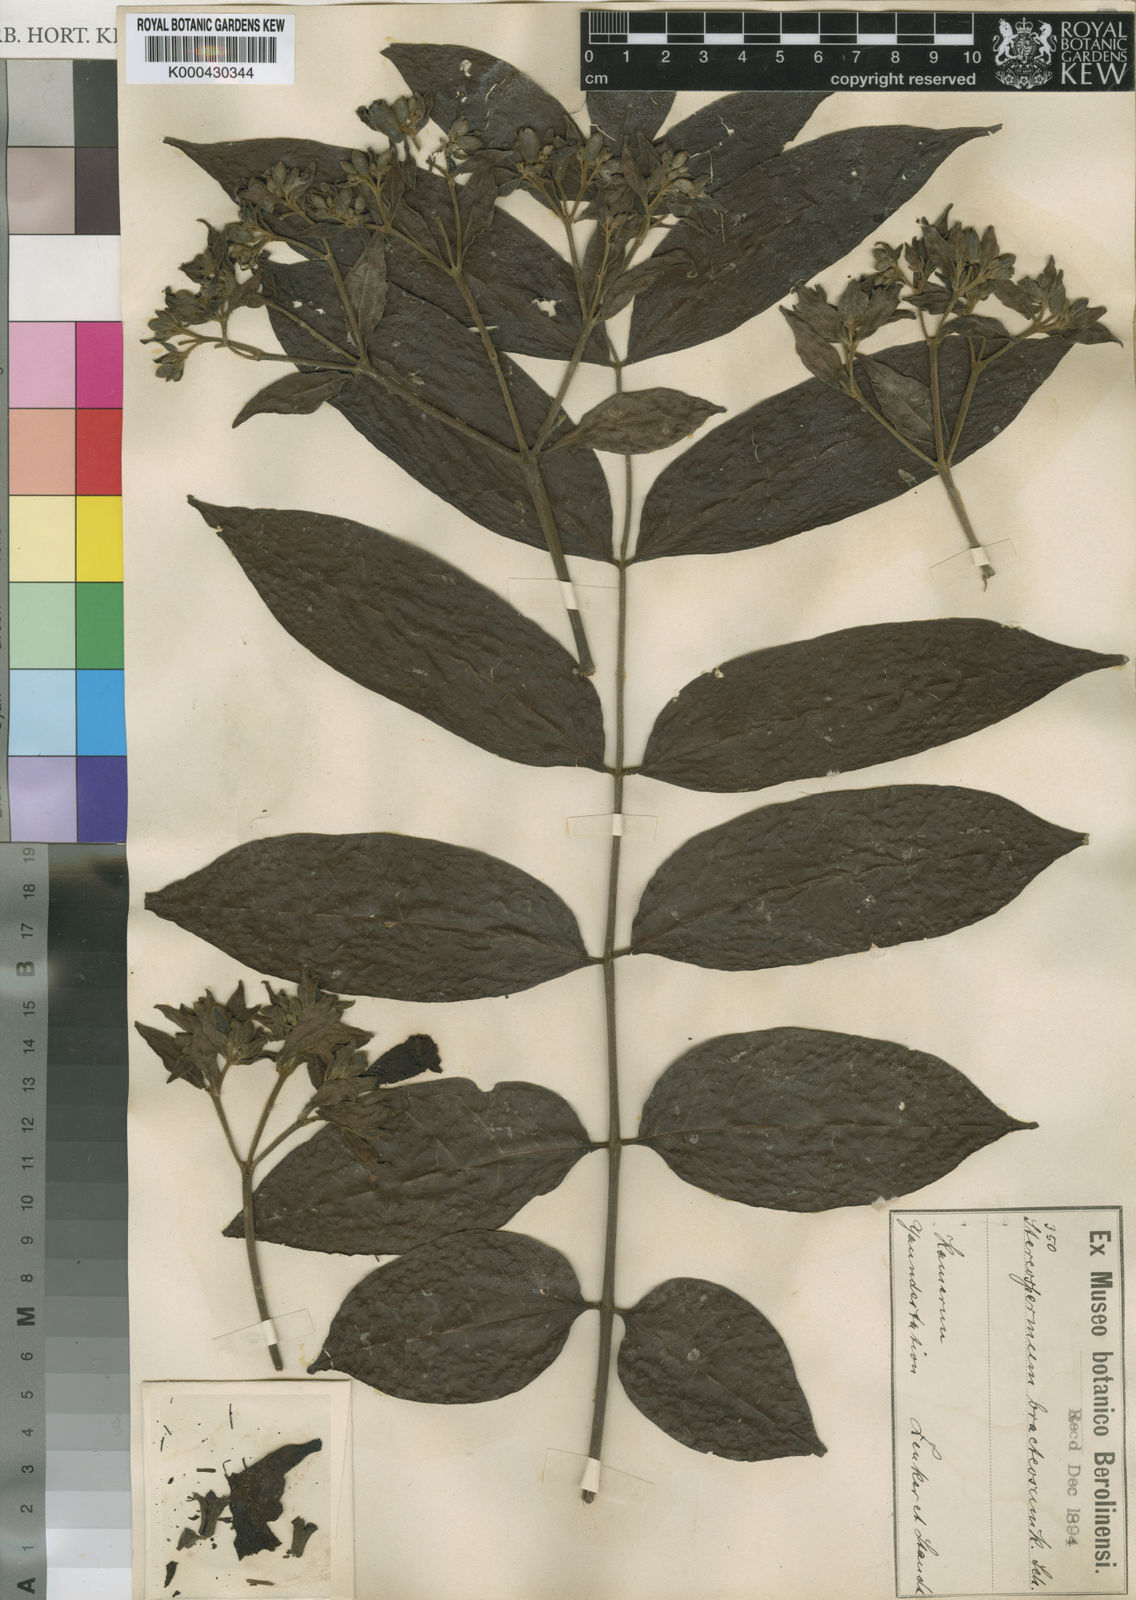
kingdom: Plantae
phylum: Tracheophyta
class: Magnoliopsida
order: Lamiales
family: Bignoniaceae
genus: Stereospermum
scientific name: Stereospermum zenkeri
